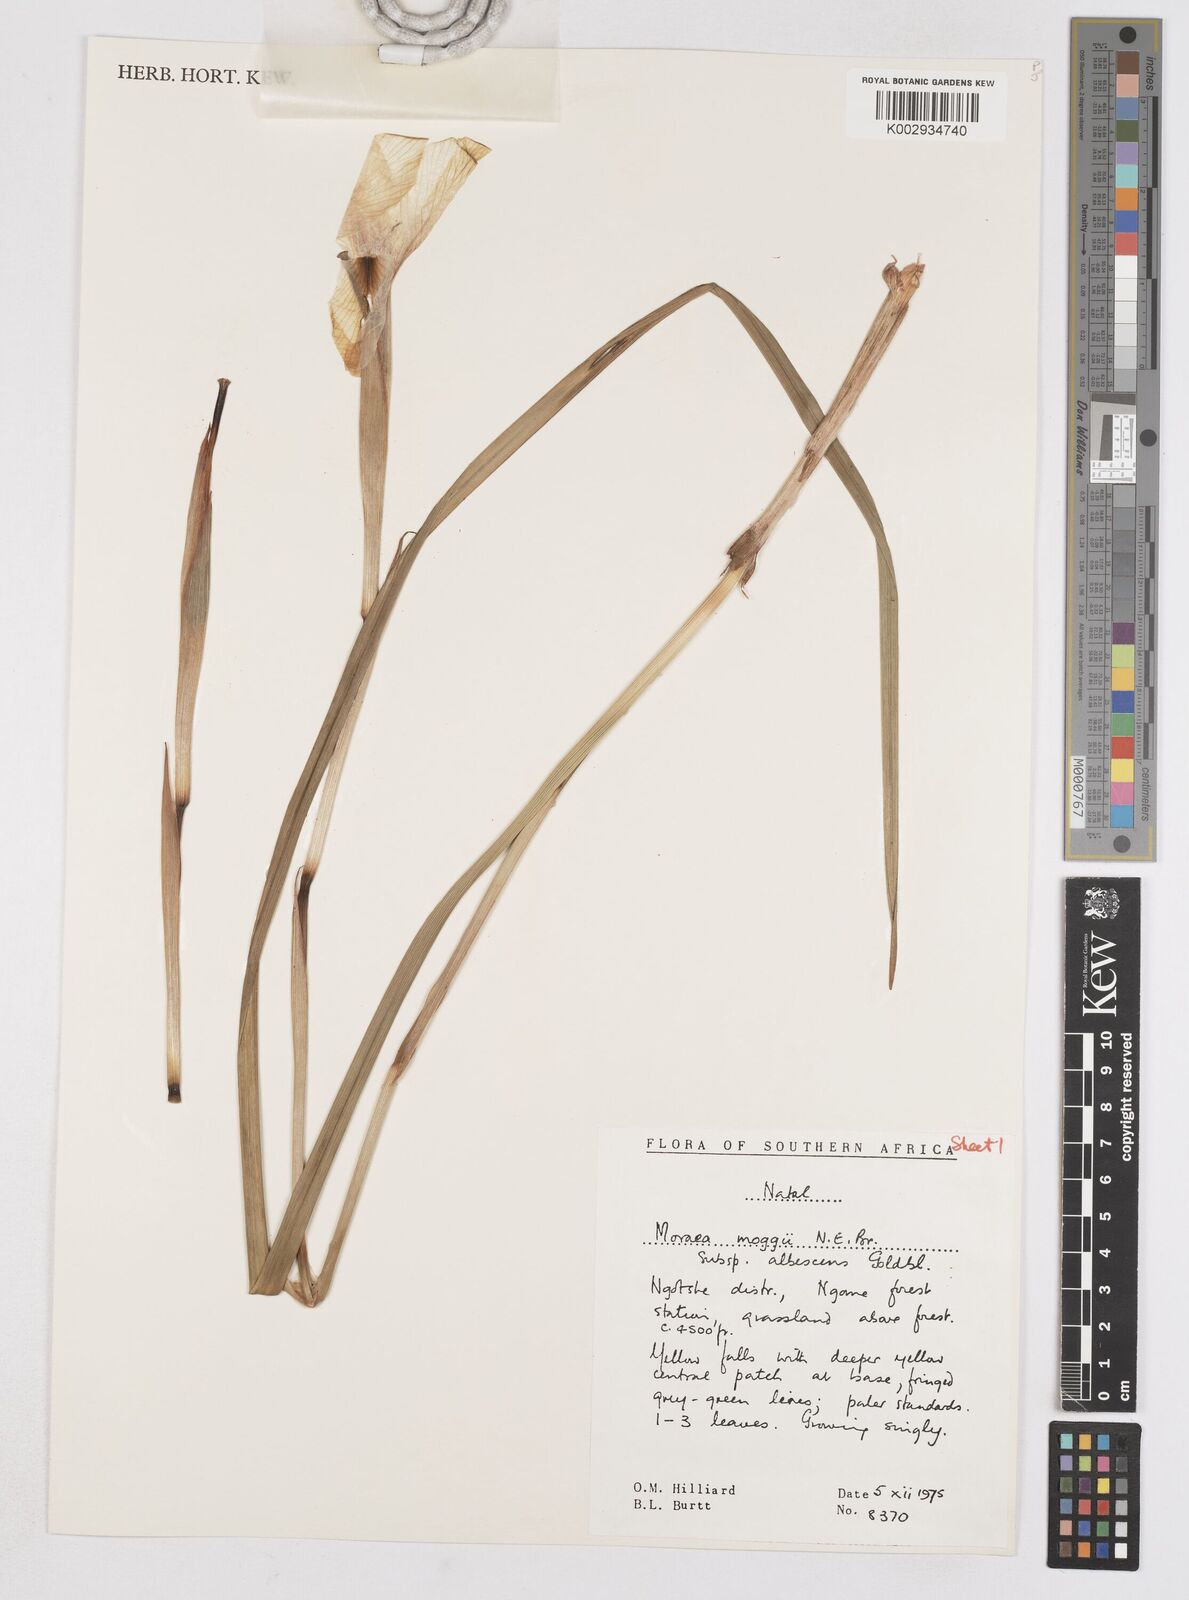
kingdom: Plantae
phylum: Tracheophyta
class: Liliopsida
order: Asparagales
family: Iridaceae
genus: Moraea
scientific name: Moraea moggii
